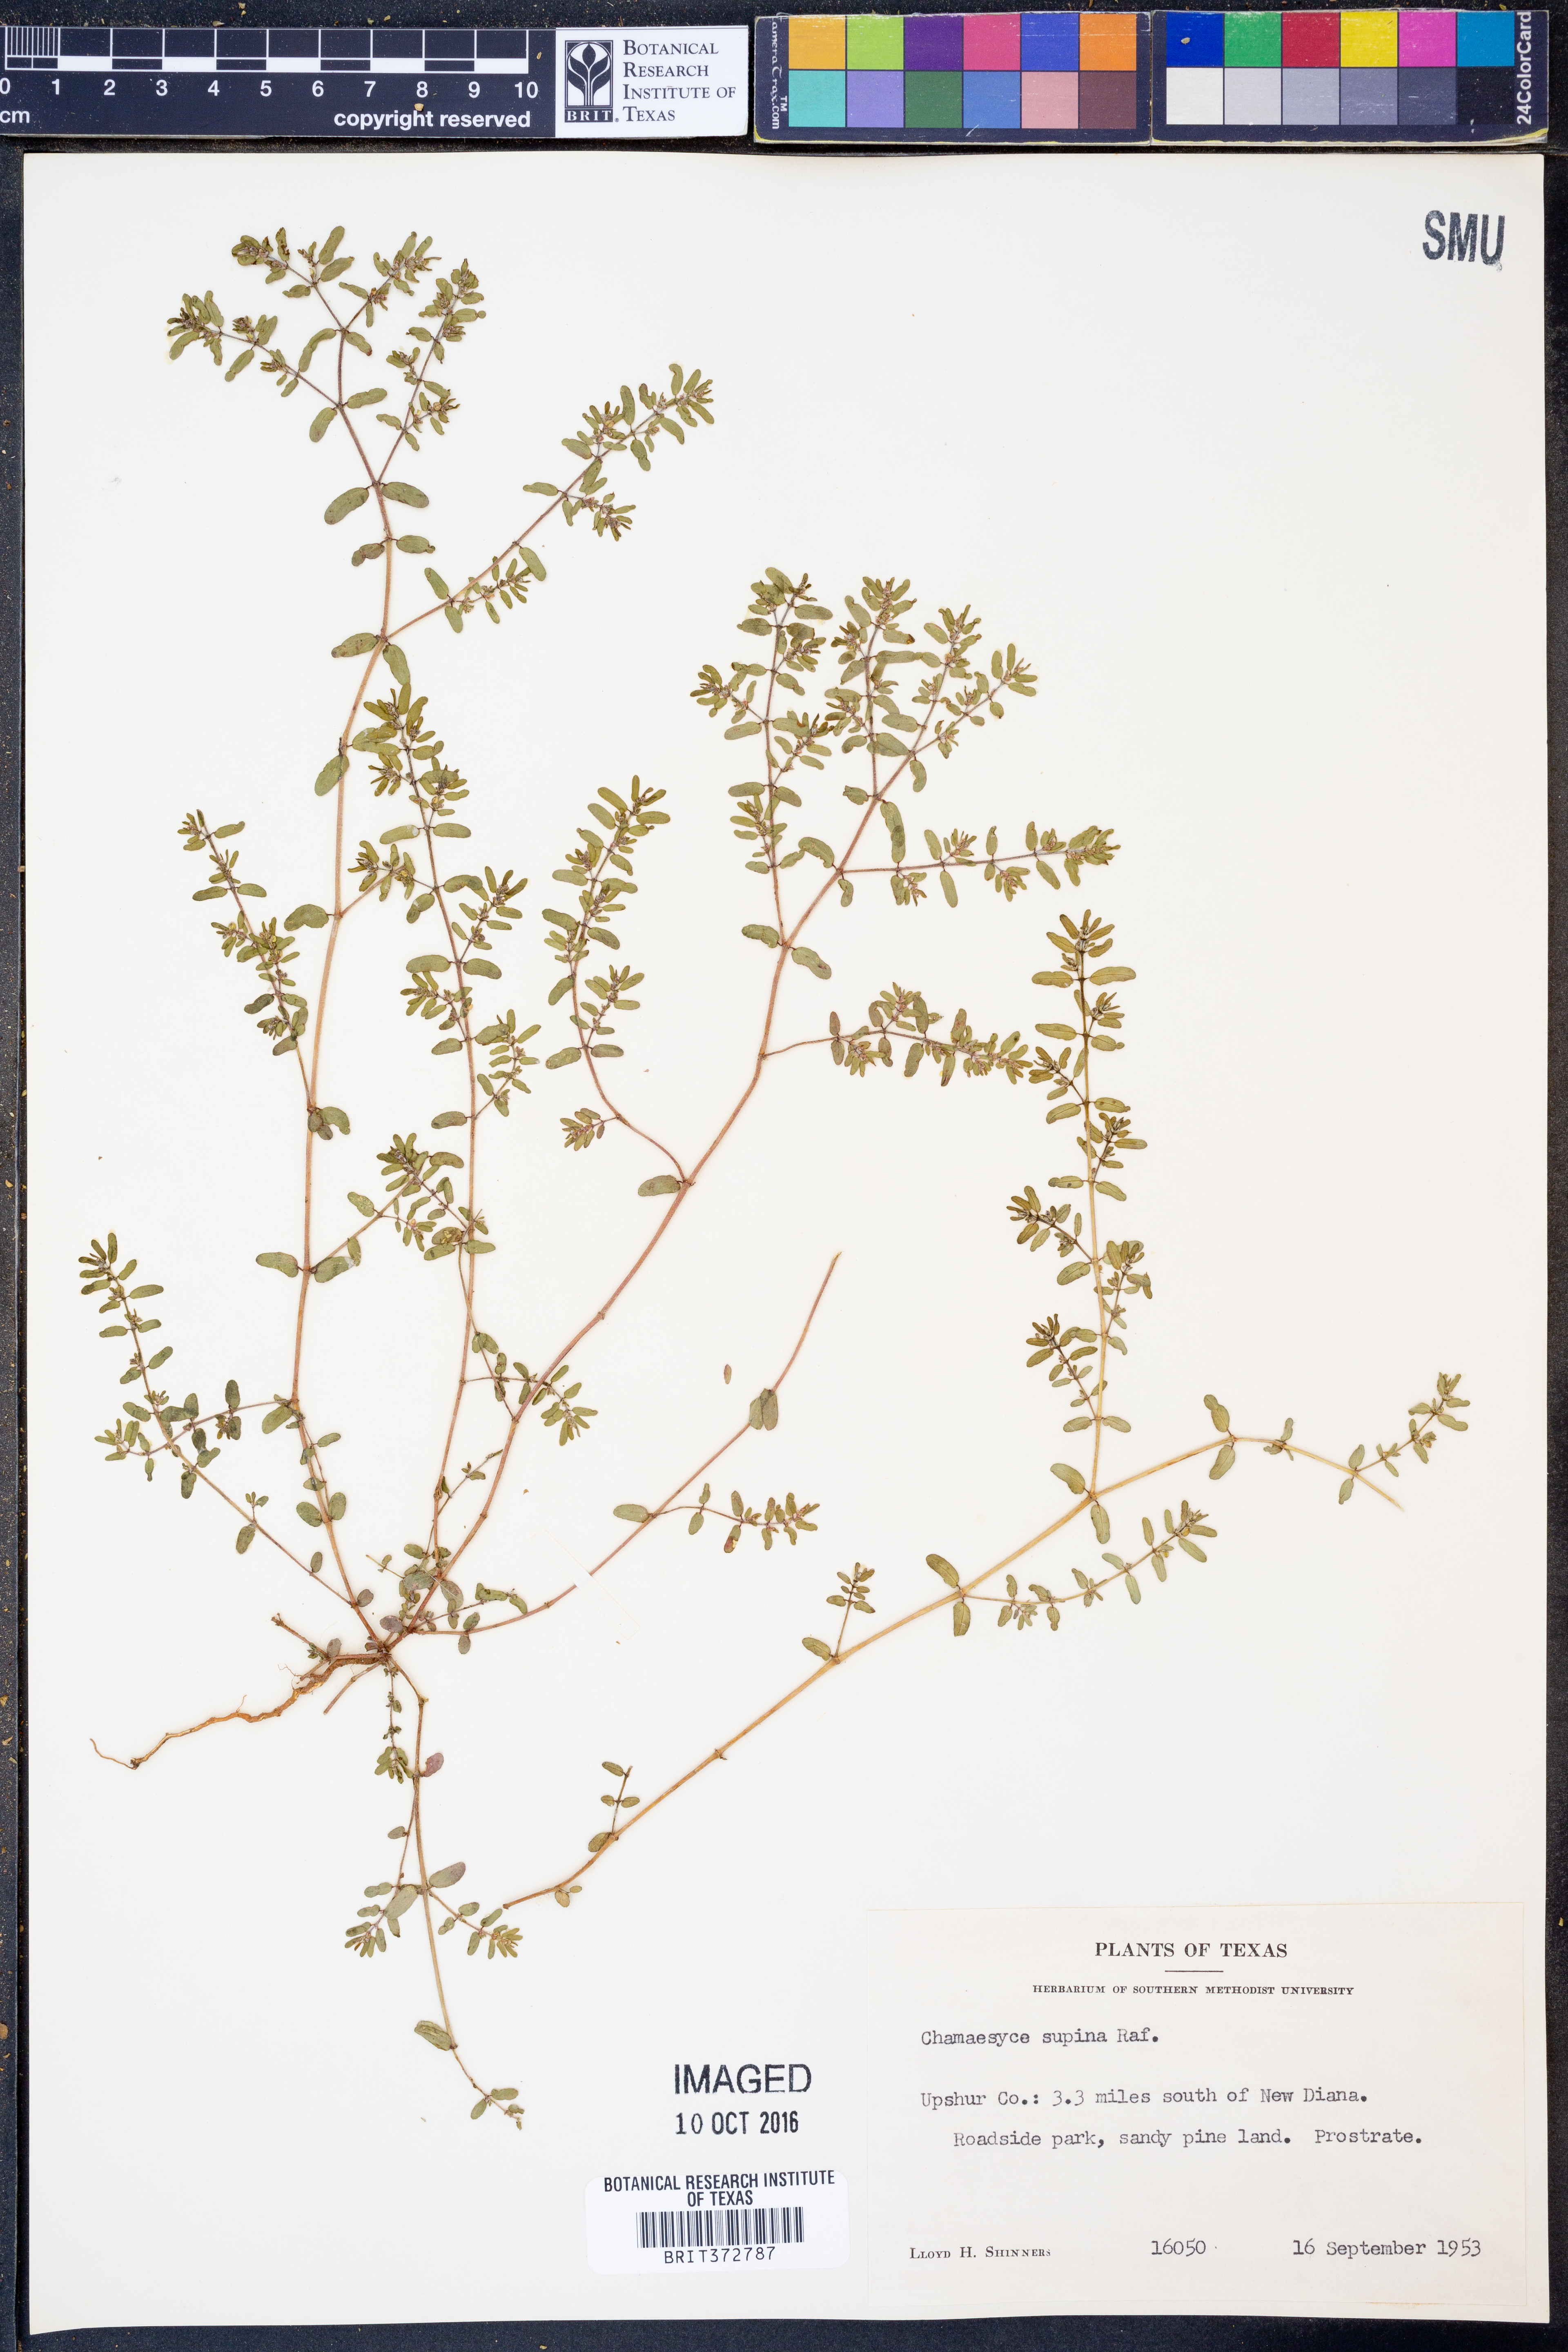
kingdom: Plantae
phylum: Tracheophyta
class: Magnoliopsida
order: Malpighiales
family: Euphorbiaceae
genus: Euphorbia
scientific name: Euphorbia maculata
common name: Spotted spurge
